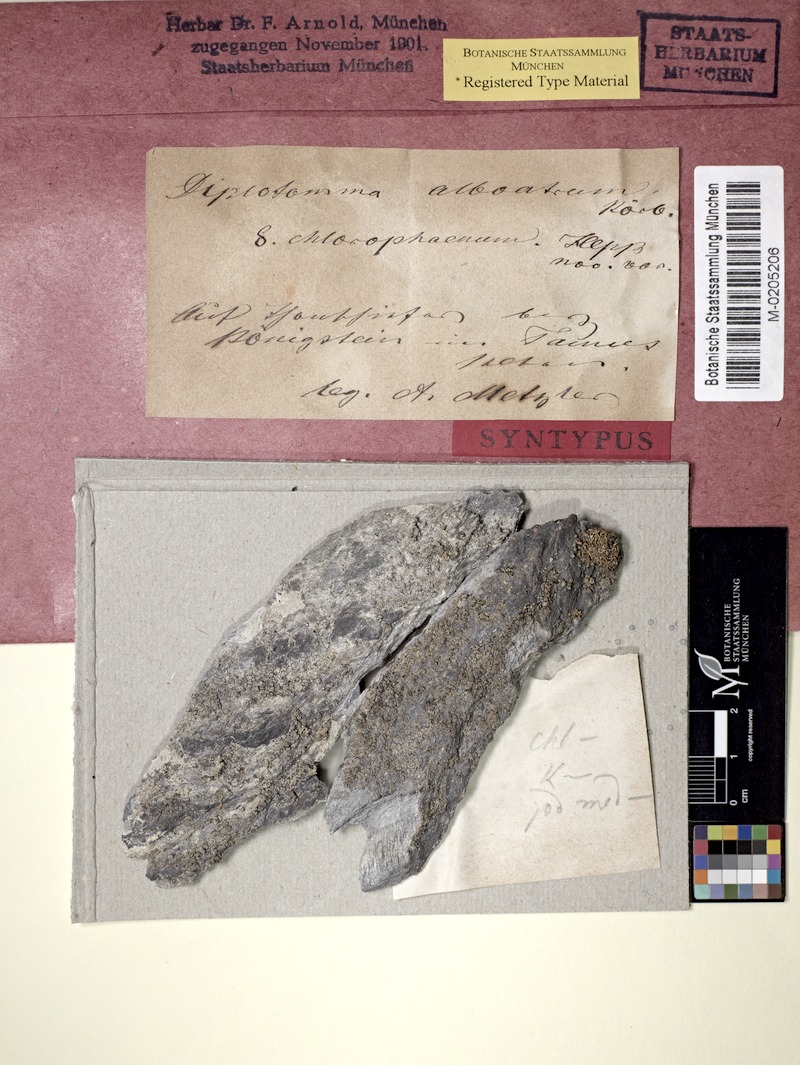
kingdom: Fungi
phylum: Ascomycota
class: Lecanoromycetes
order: Caliciales
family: Caliciaceae
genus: Diplotomma
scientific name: Diplotomma chlorophaeum
